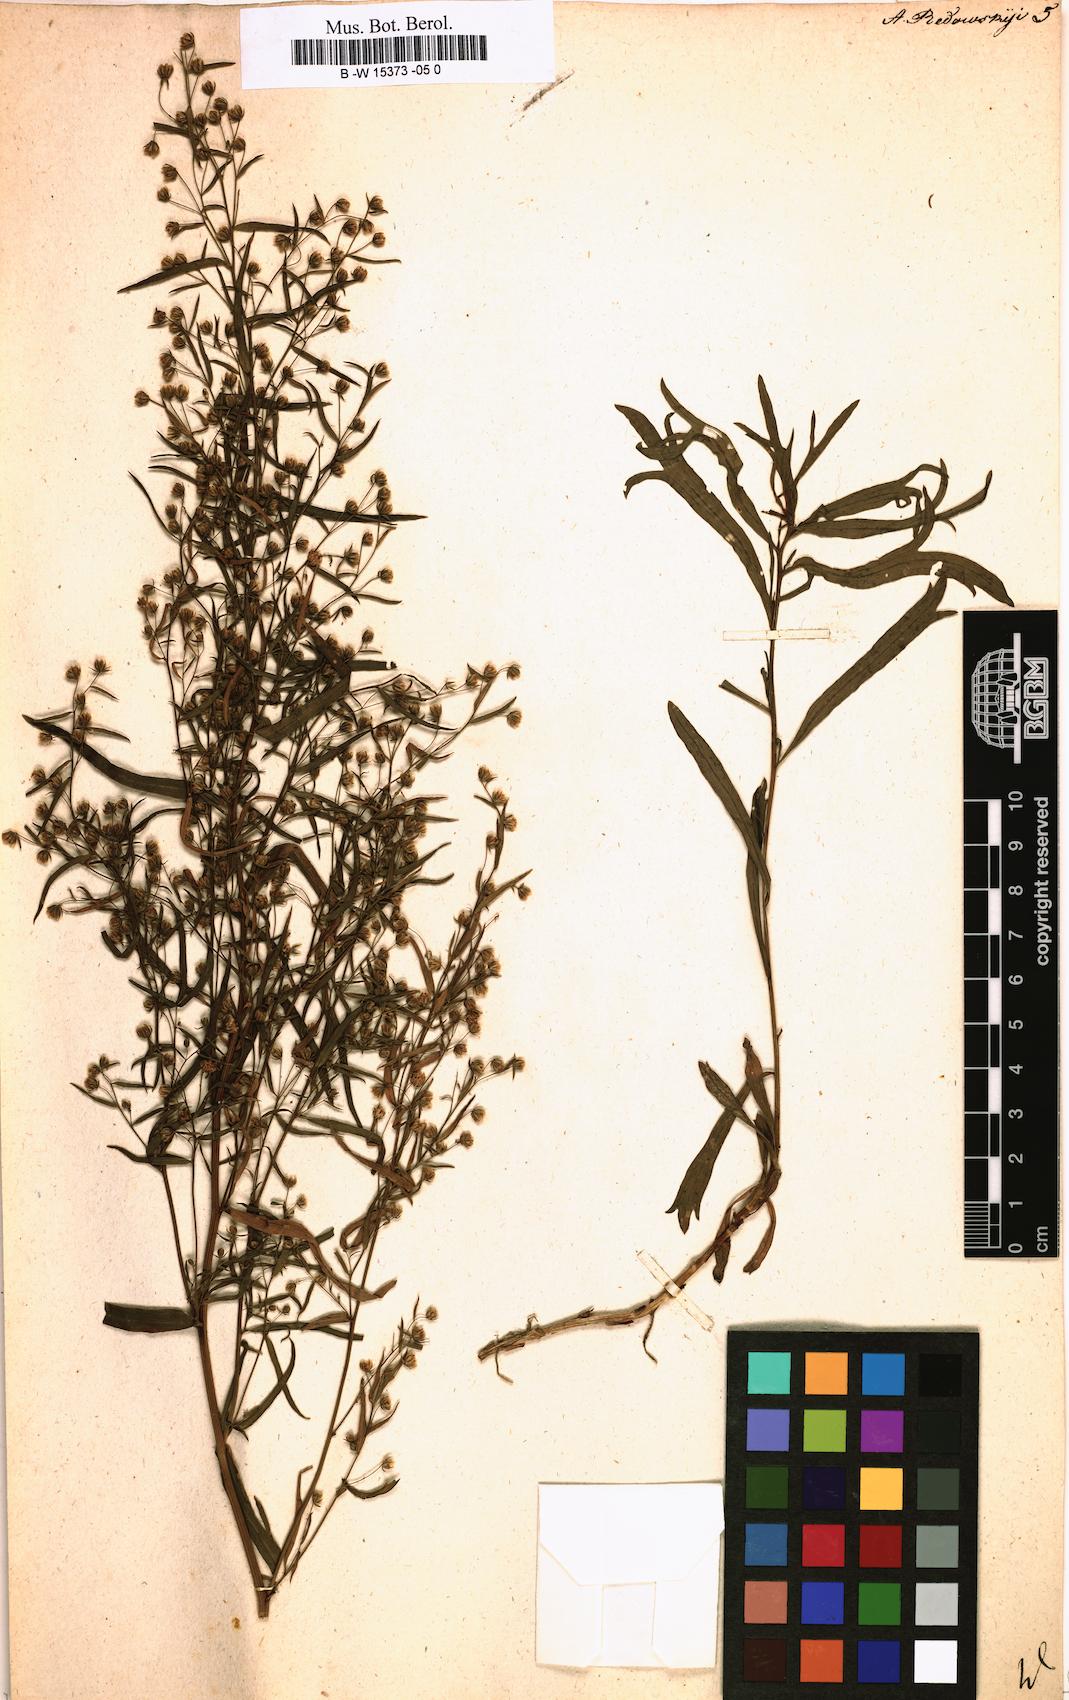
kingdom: Plantae
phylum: Tracheophyta
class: Magnoliopsida
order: Asterales
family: Asteraceae
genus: Artemisia
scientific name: Artemisia dracunculus
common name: Tarragon
